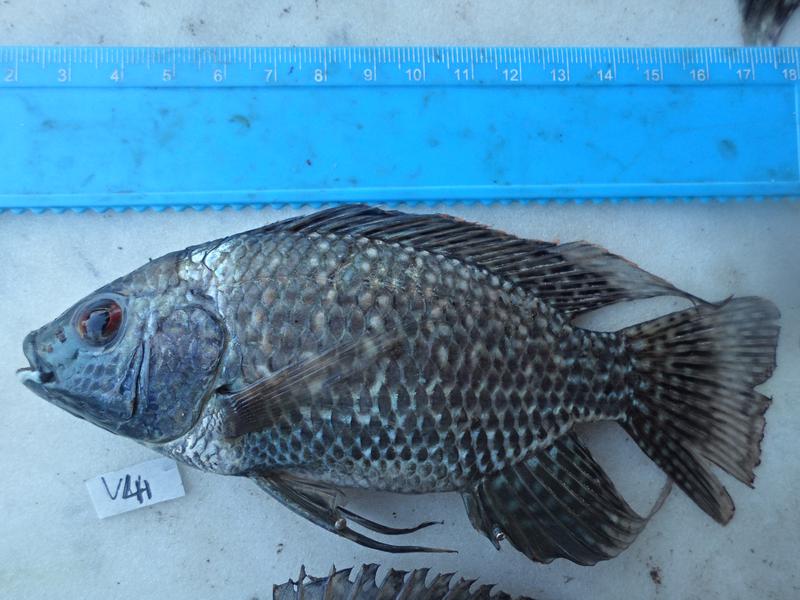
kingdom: Animalia
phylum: Chordata
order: Perciformes
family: Cichlidae
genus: Oreochromis
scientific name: Oreochromis leucostictus
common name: Blue spotted tilapia
